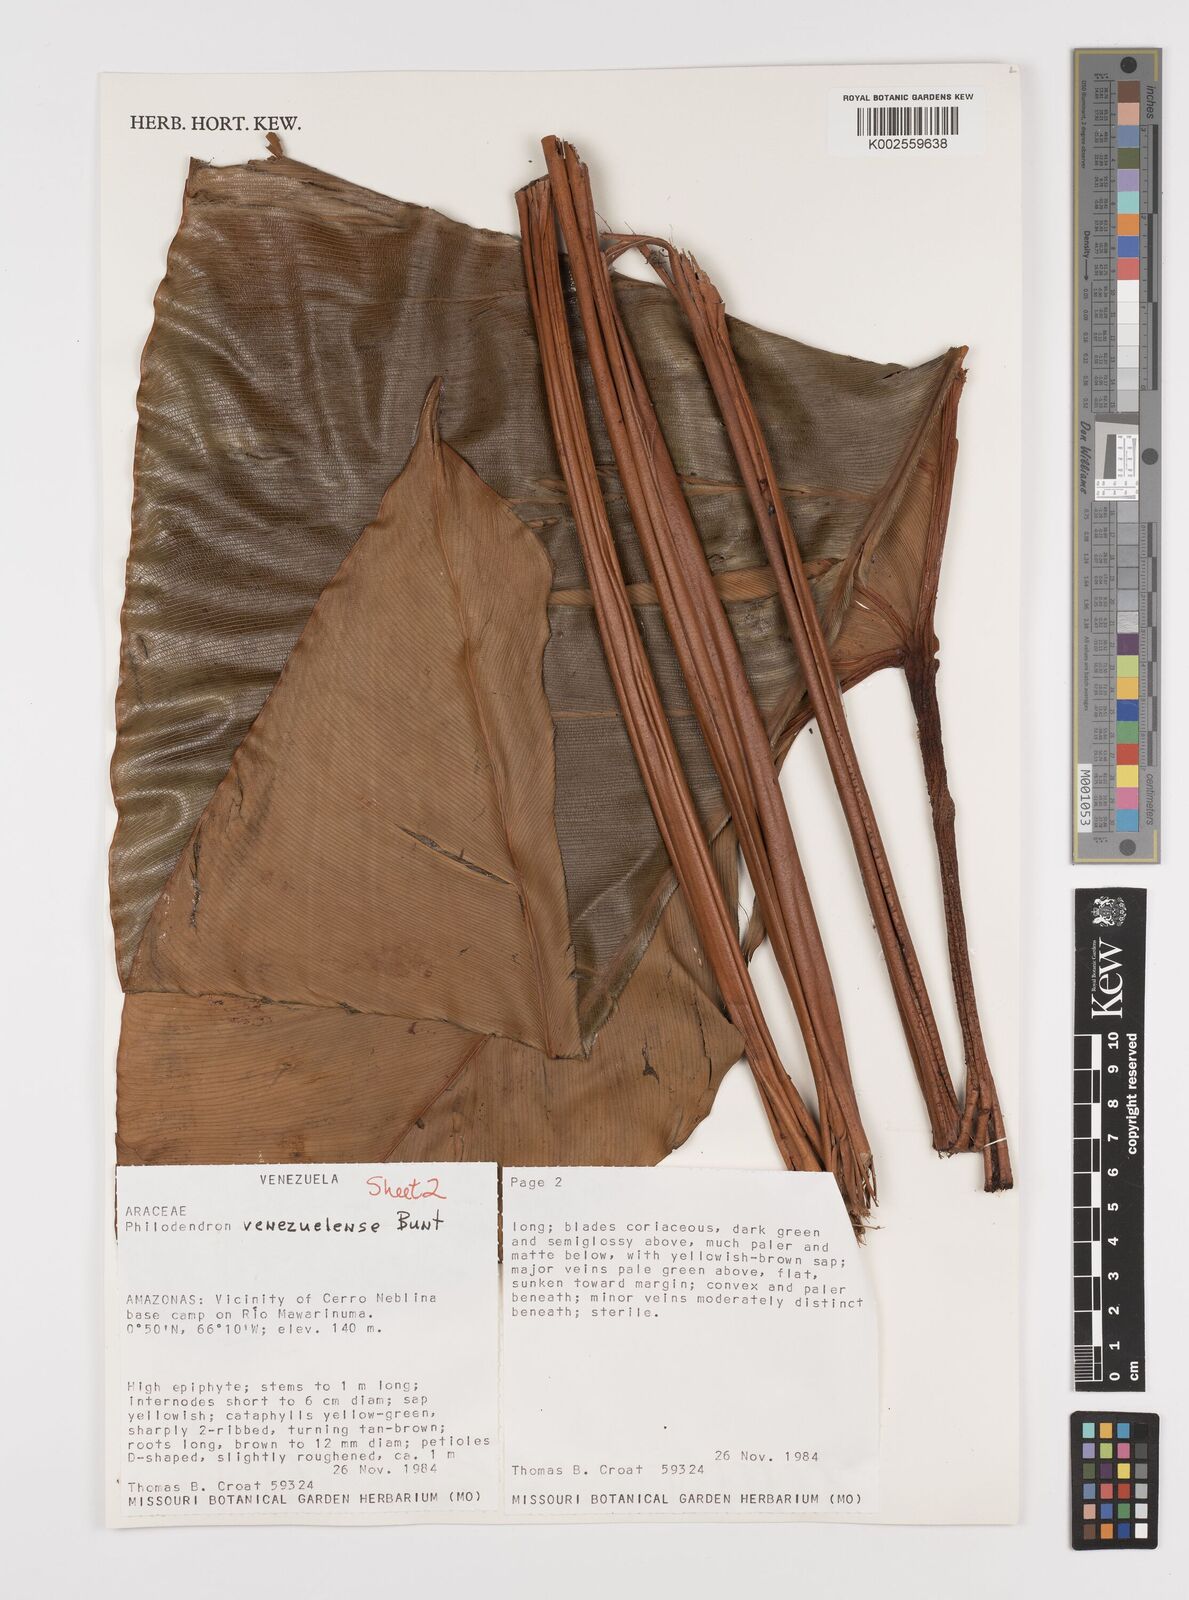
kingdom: Plantae
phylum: Tracheophyta
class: Liliopsida
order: Alismatales
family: Araceae
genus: Thaumatophyllum
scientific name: Thaumatophyllum venezuelense
